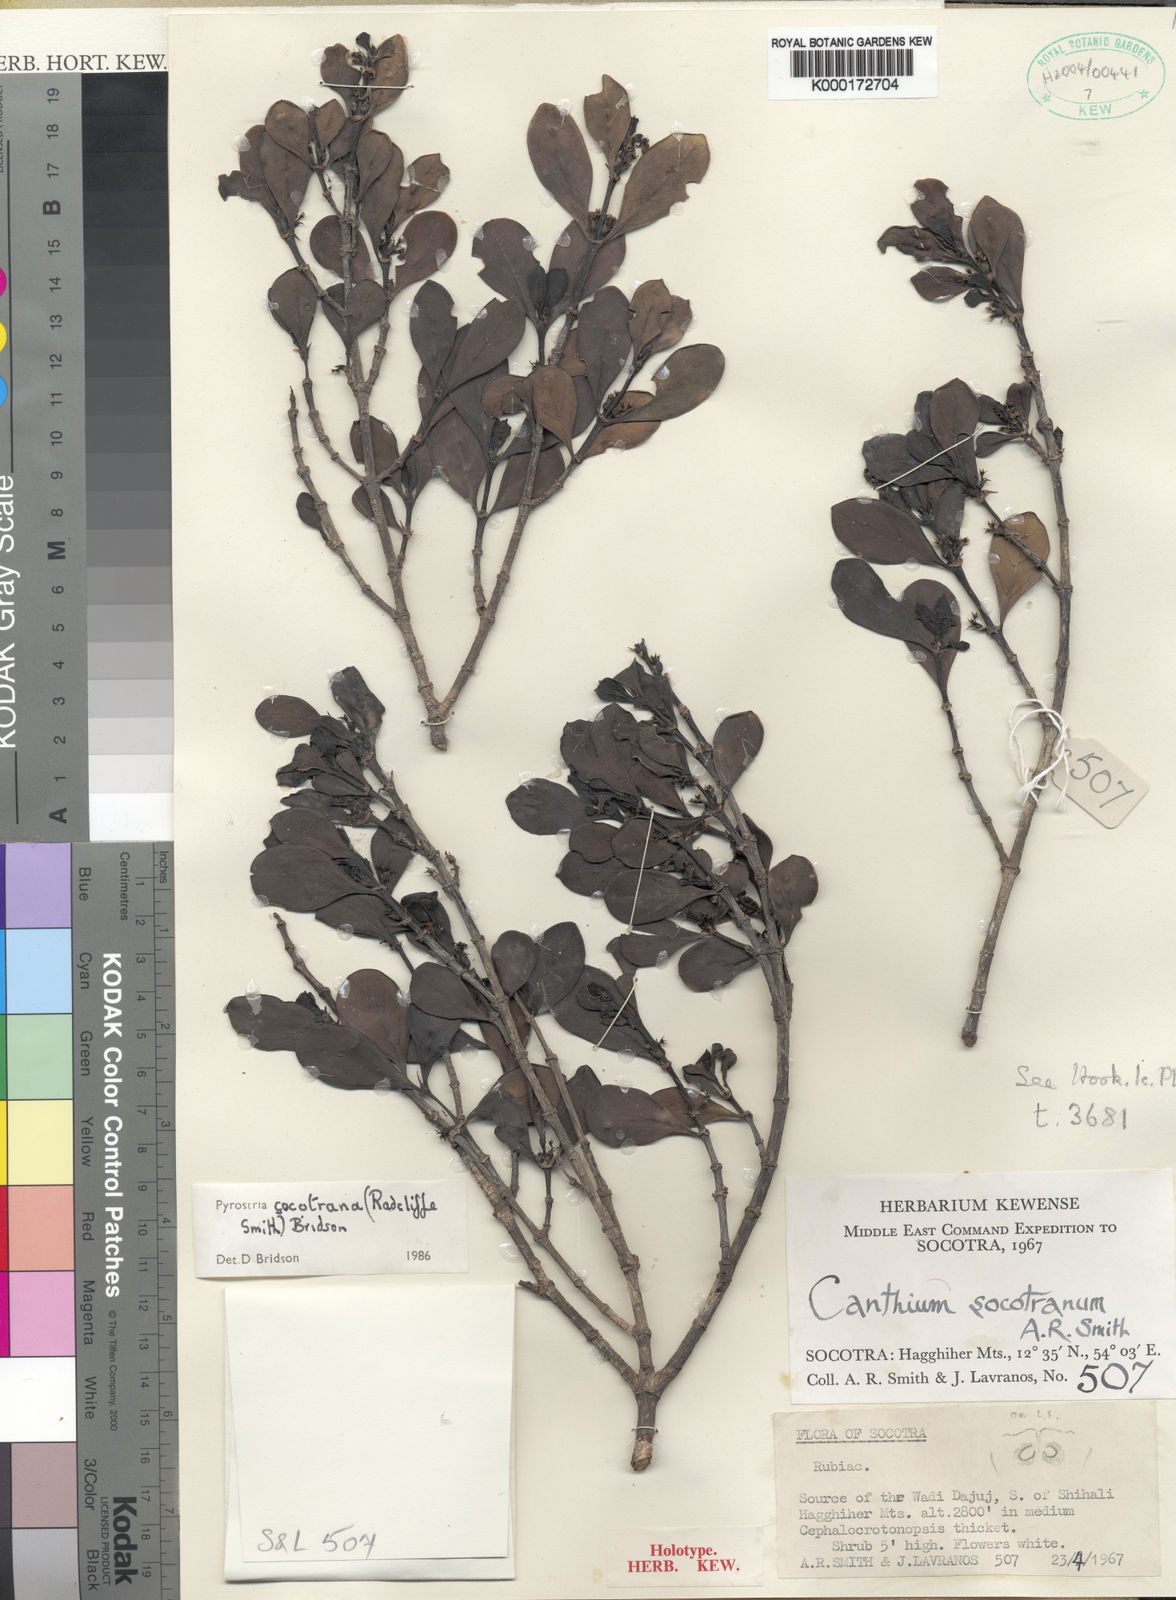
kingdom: Plantae
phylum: Tracheophyta
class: Magnoliopsida
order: Gentianales
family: Rubiaceae
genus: Pyrostria
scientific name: Pyrostria socotrana
